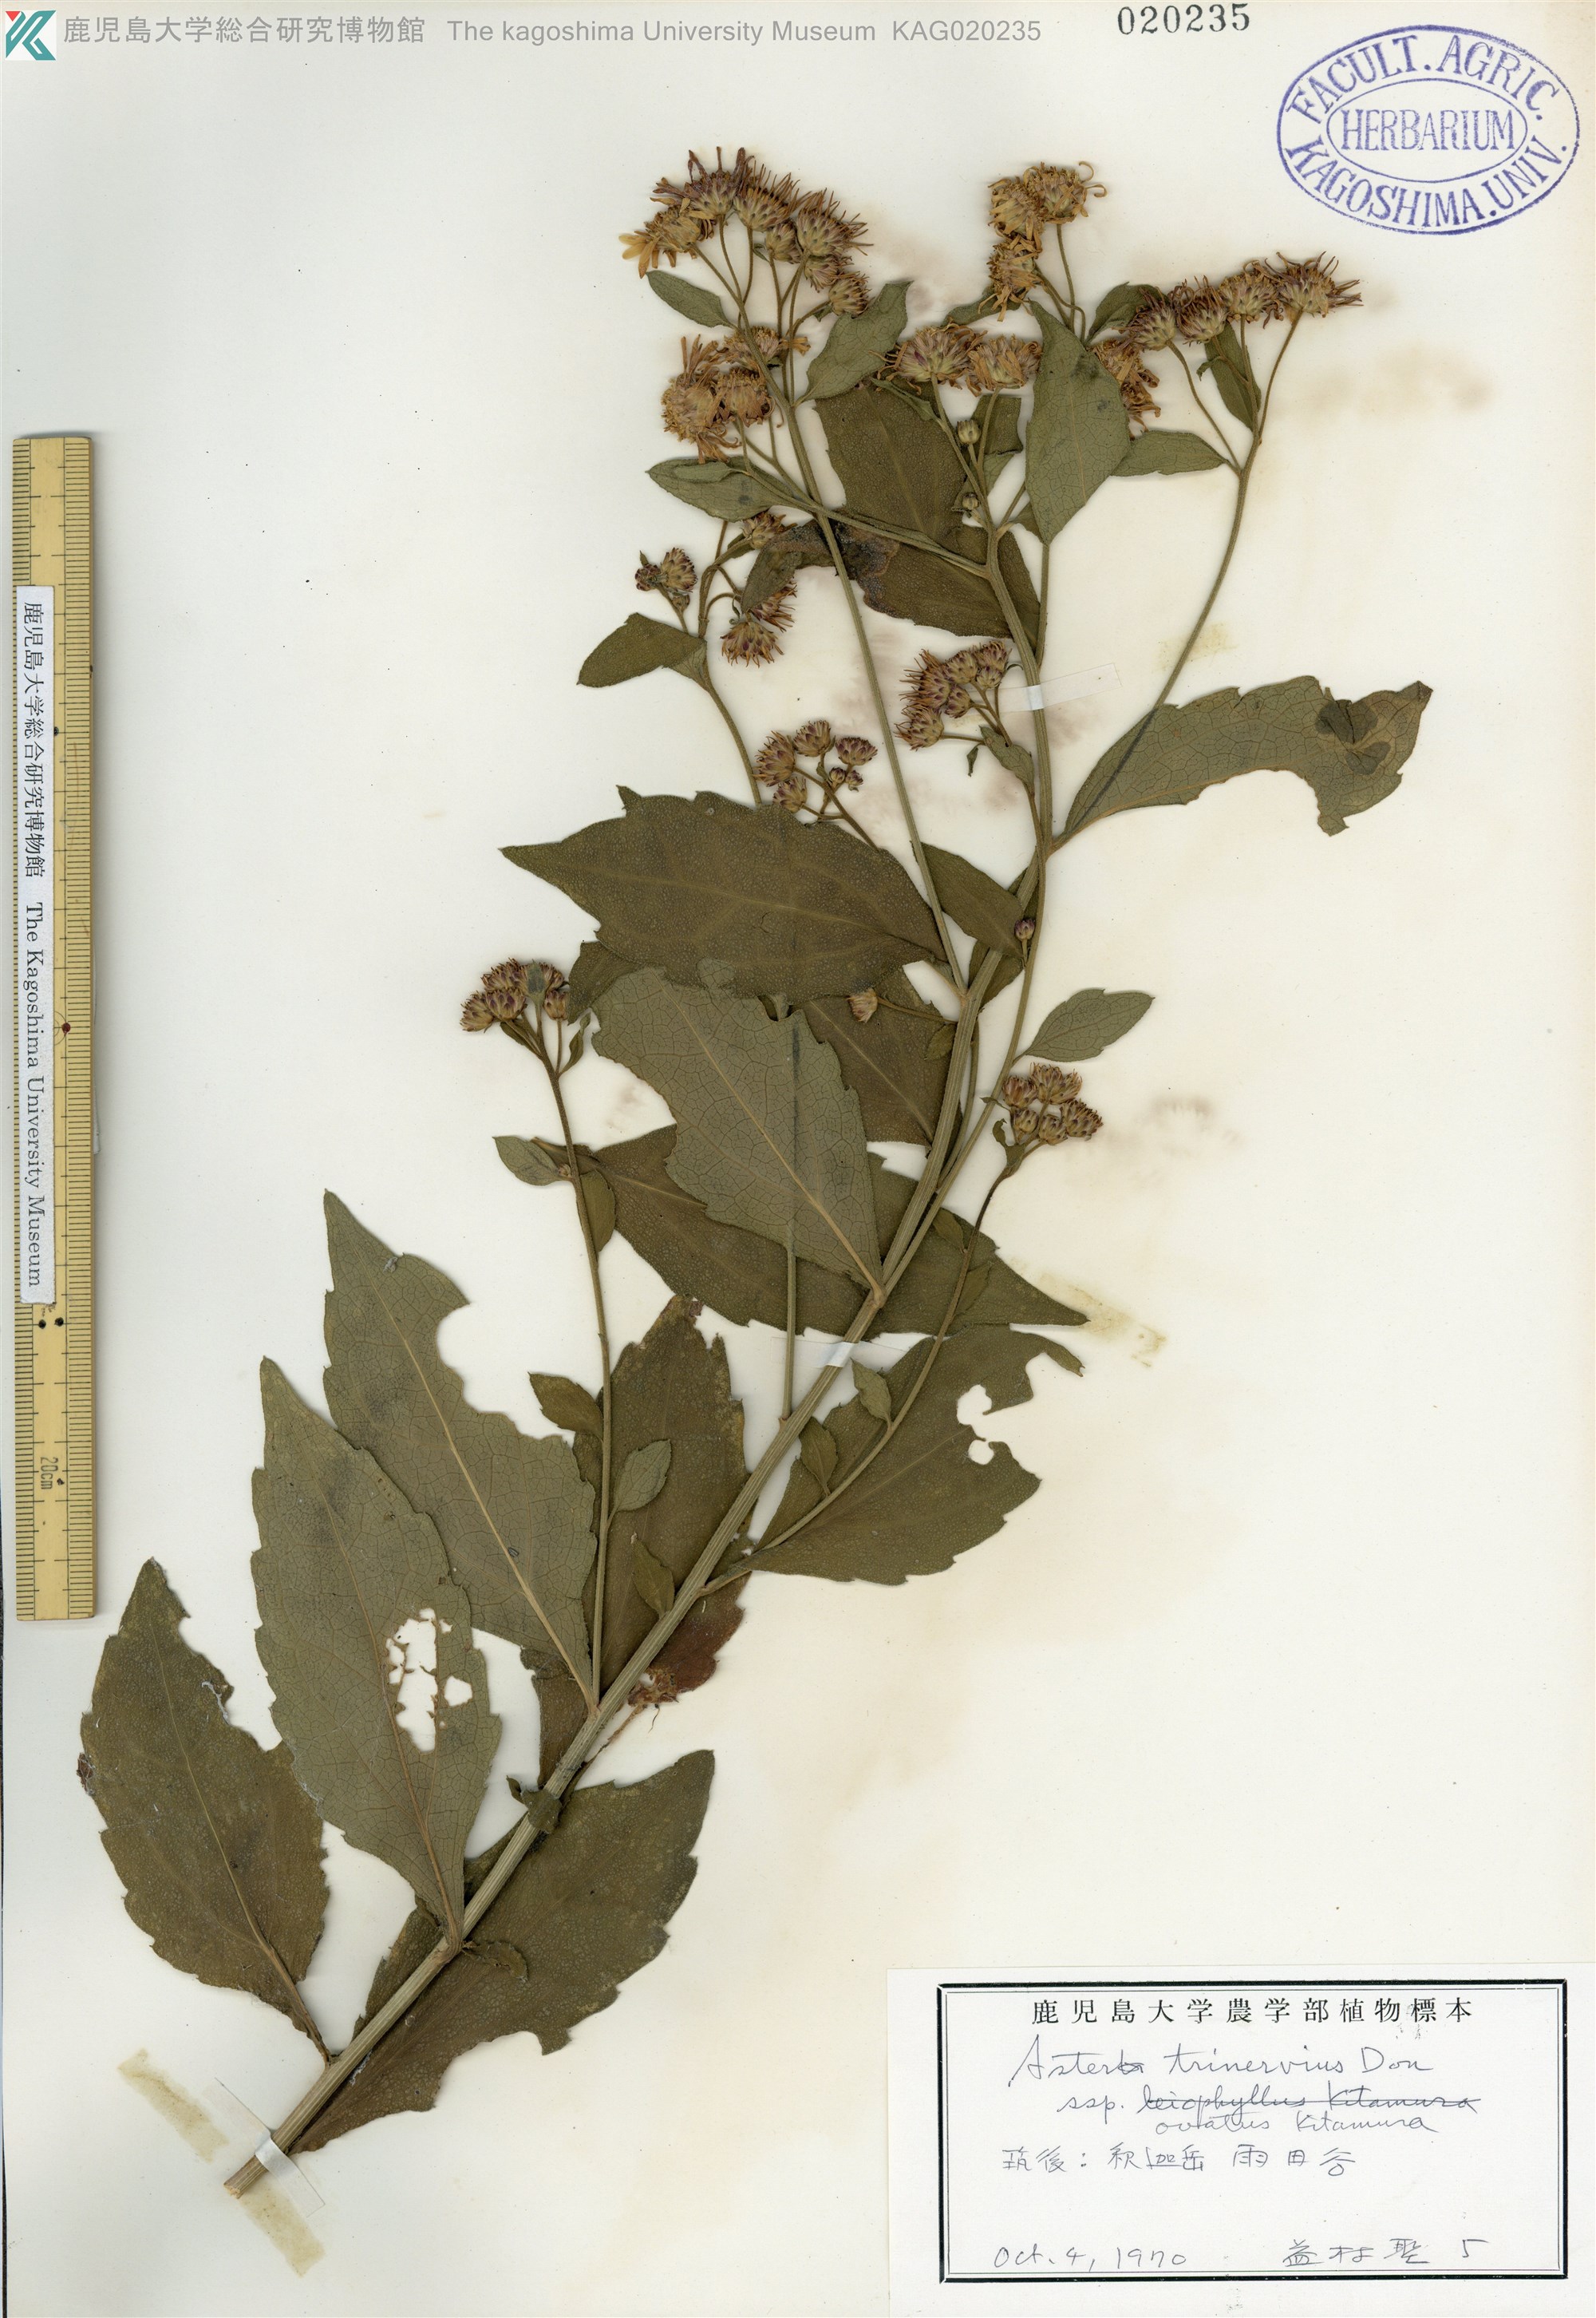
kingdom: Plantae
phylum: Tracheophyta
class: Magnoliopsida
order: Asterales
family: Asteraceae
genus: Aster
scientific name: Aster microcephalus
